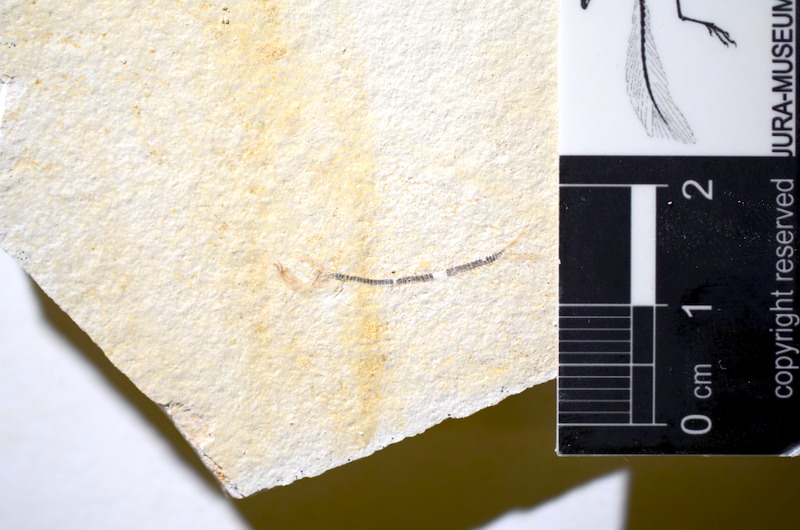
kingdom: Animalia
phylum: Chordata
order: Salmoniformes
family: Orthogonikleithridae
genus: Orthogonikleithrus
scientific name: Orthogonikleithrus hoelli
